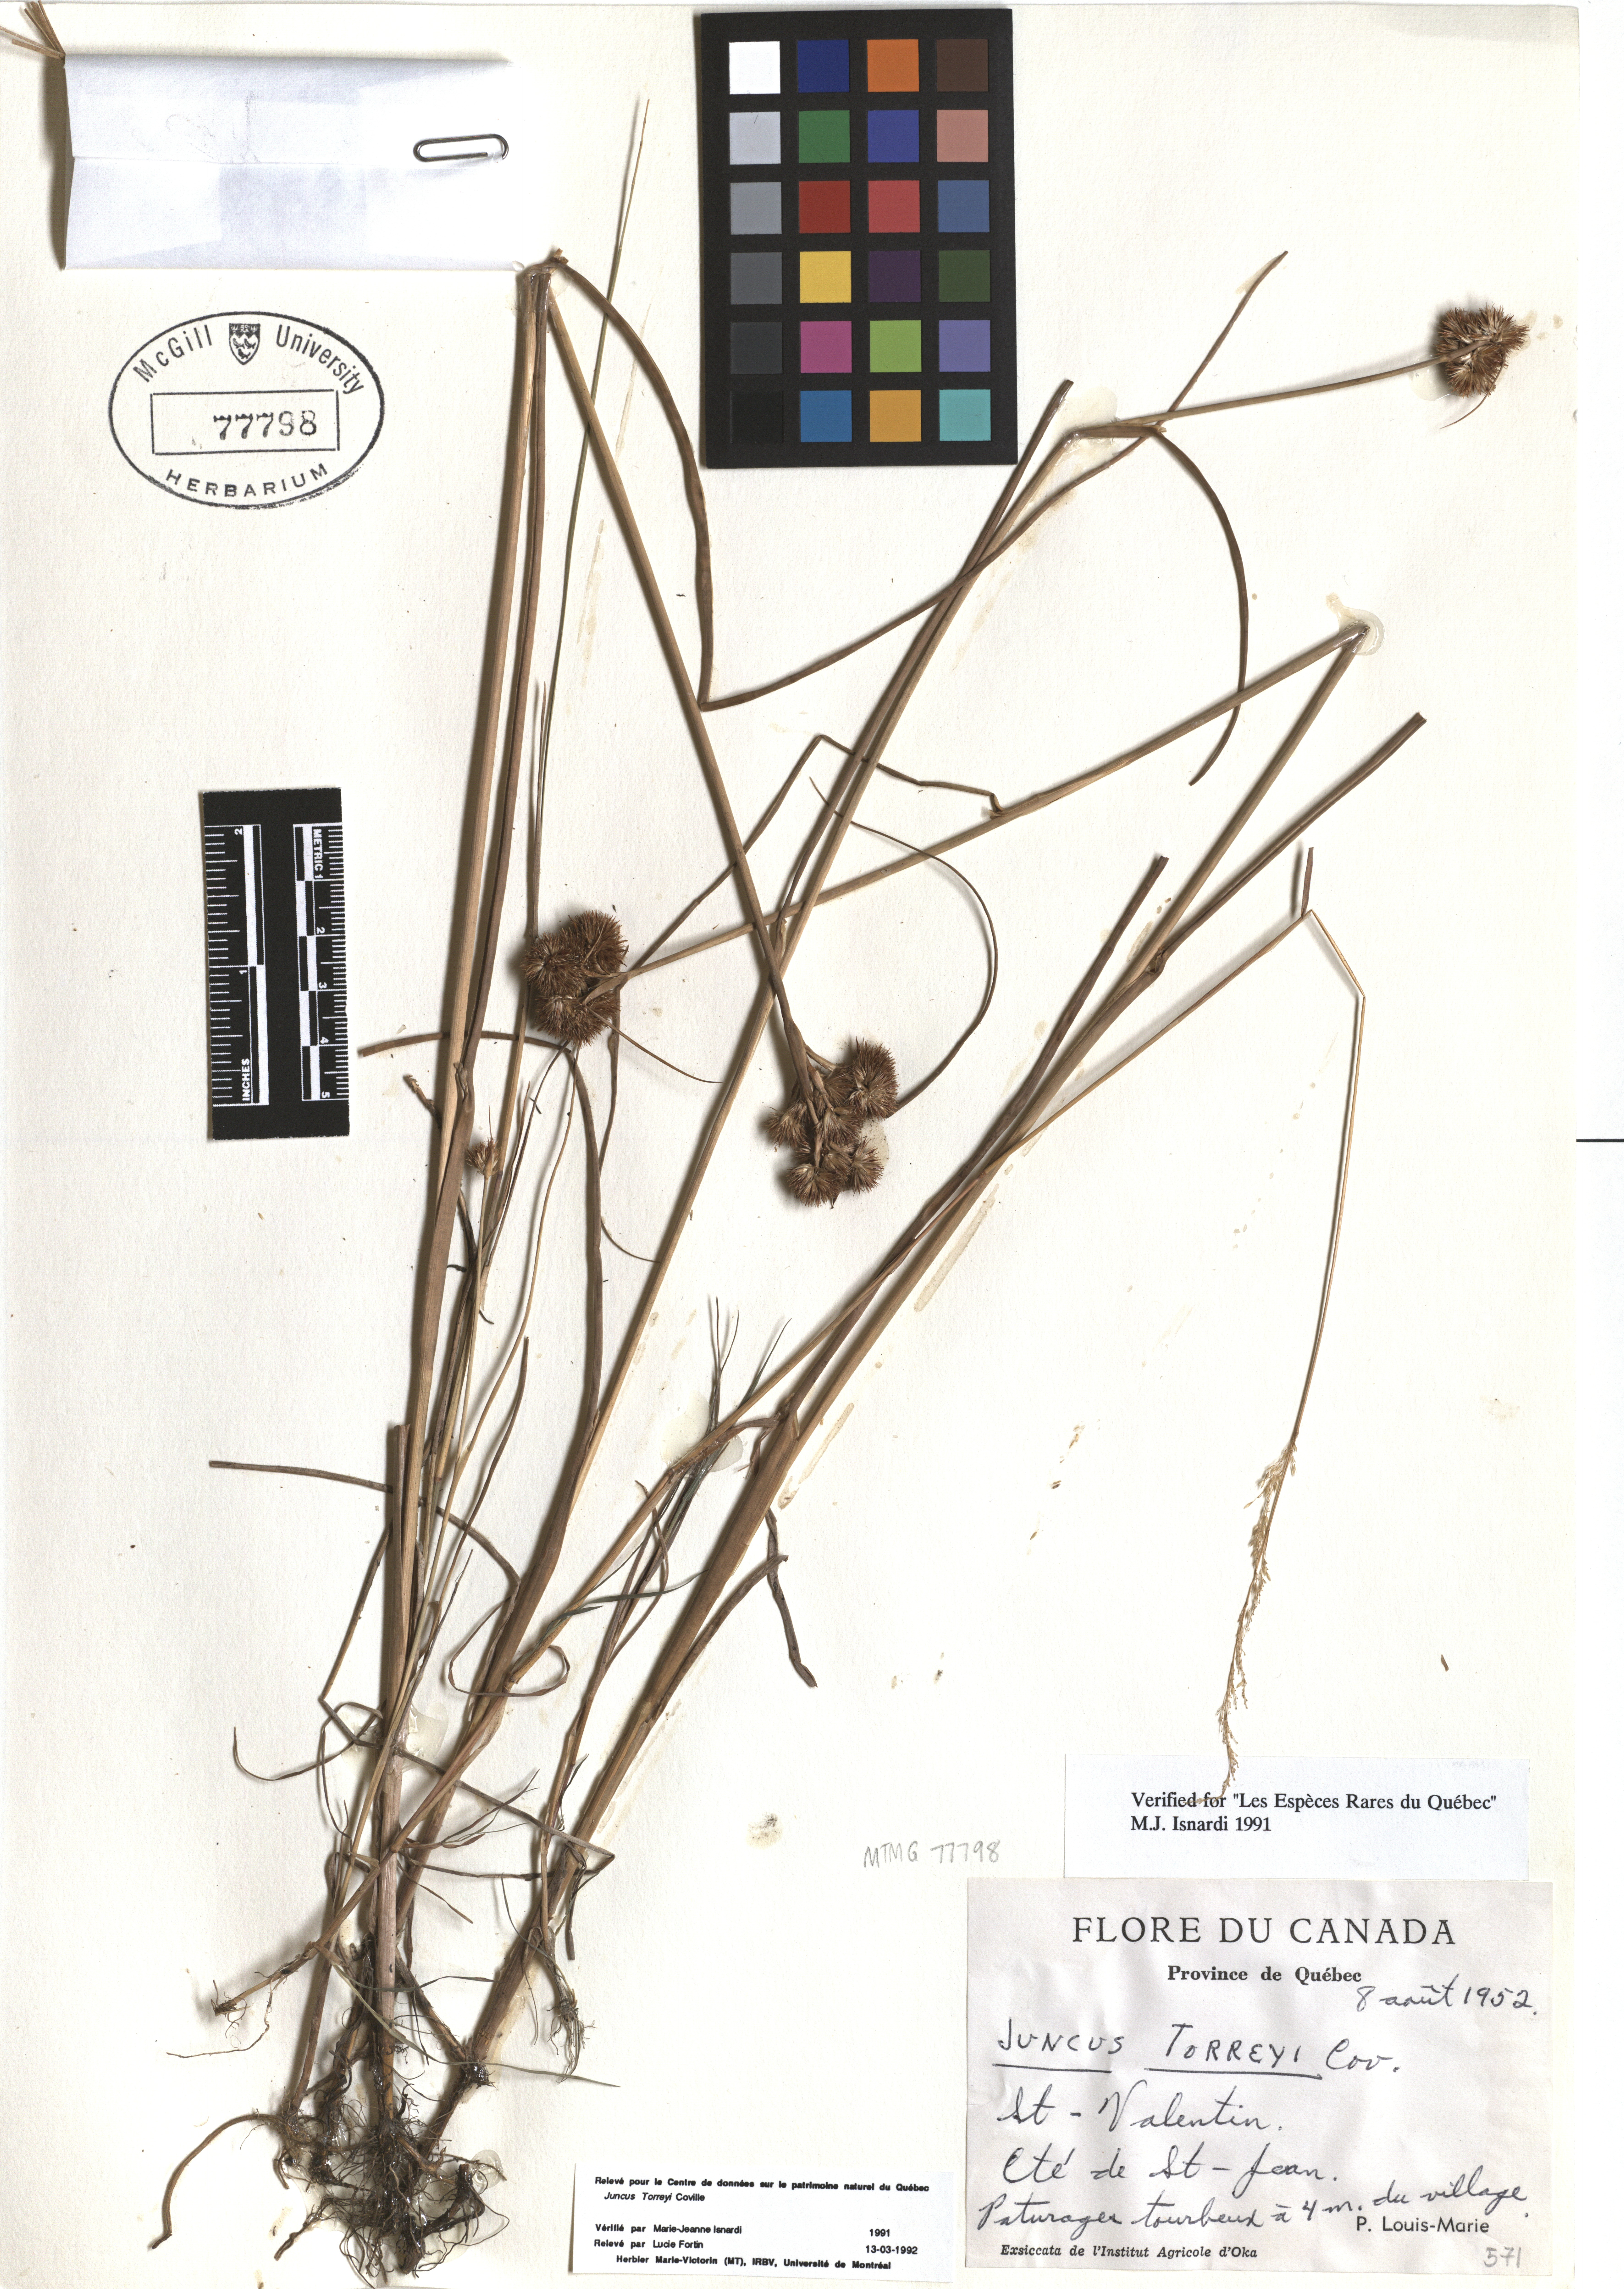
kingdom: Plantae
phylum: Tracheophyta
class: Liliopsida
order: Poales
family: Juncaceae
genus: Juncus
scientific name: Juncus torreyi
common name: Torrey's rush
